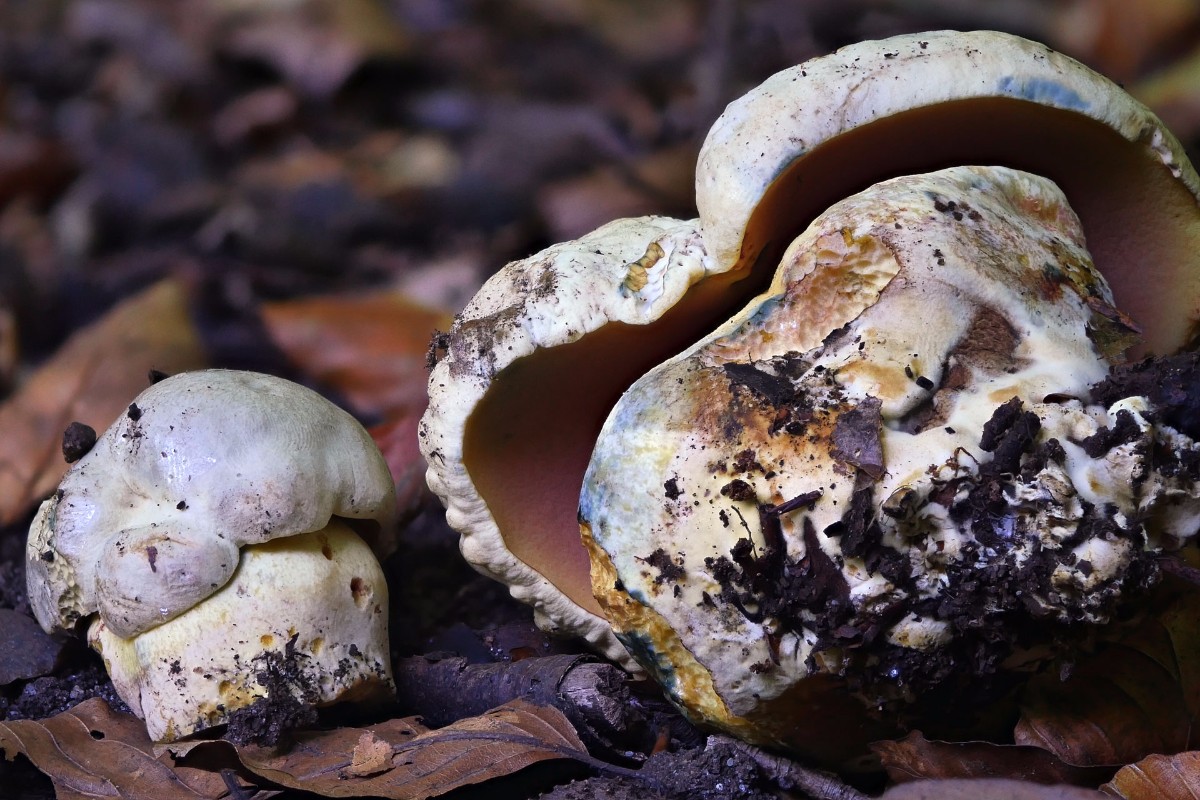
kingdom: Fungi
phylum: Basidiomycota
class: Agaricomycetes
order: Boletales
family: Boletaceae
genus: Rubroboletus
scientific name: Rubroboletus satanas
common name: Satans rørhat
